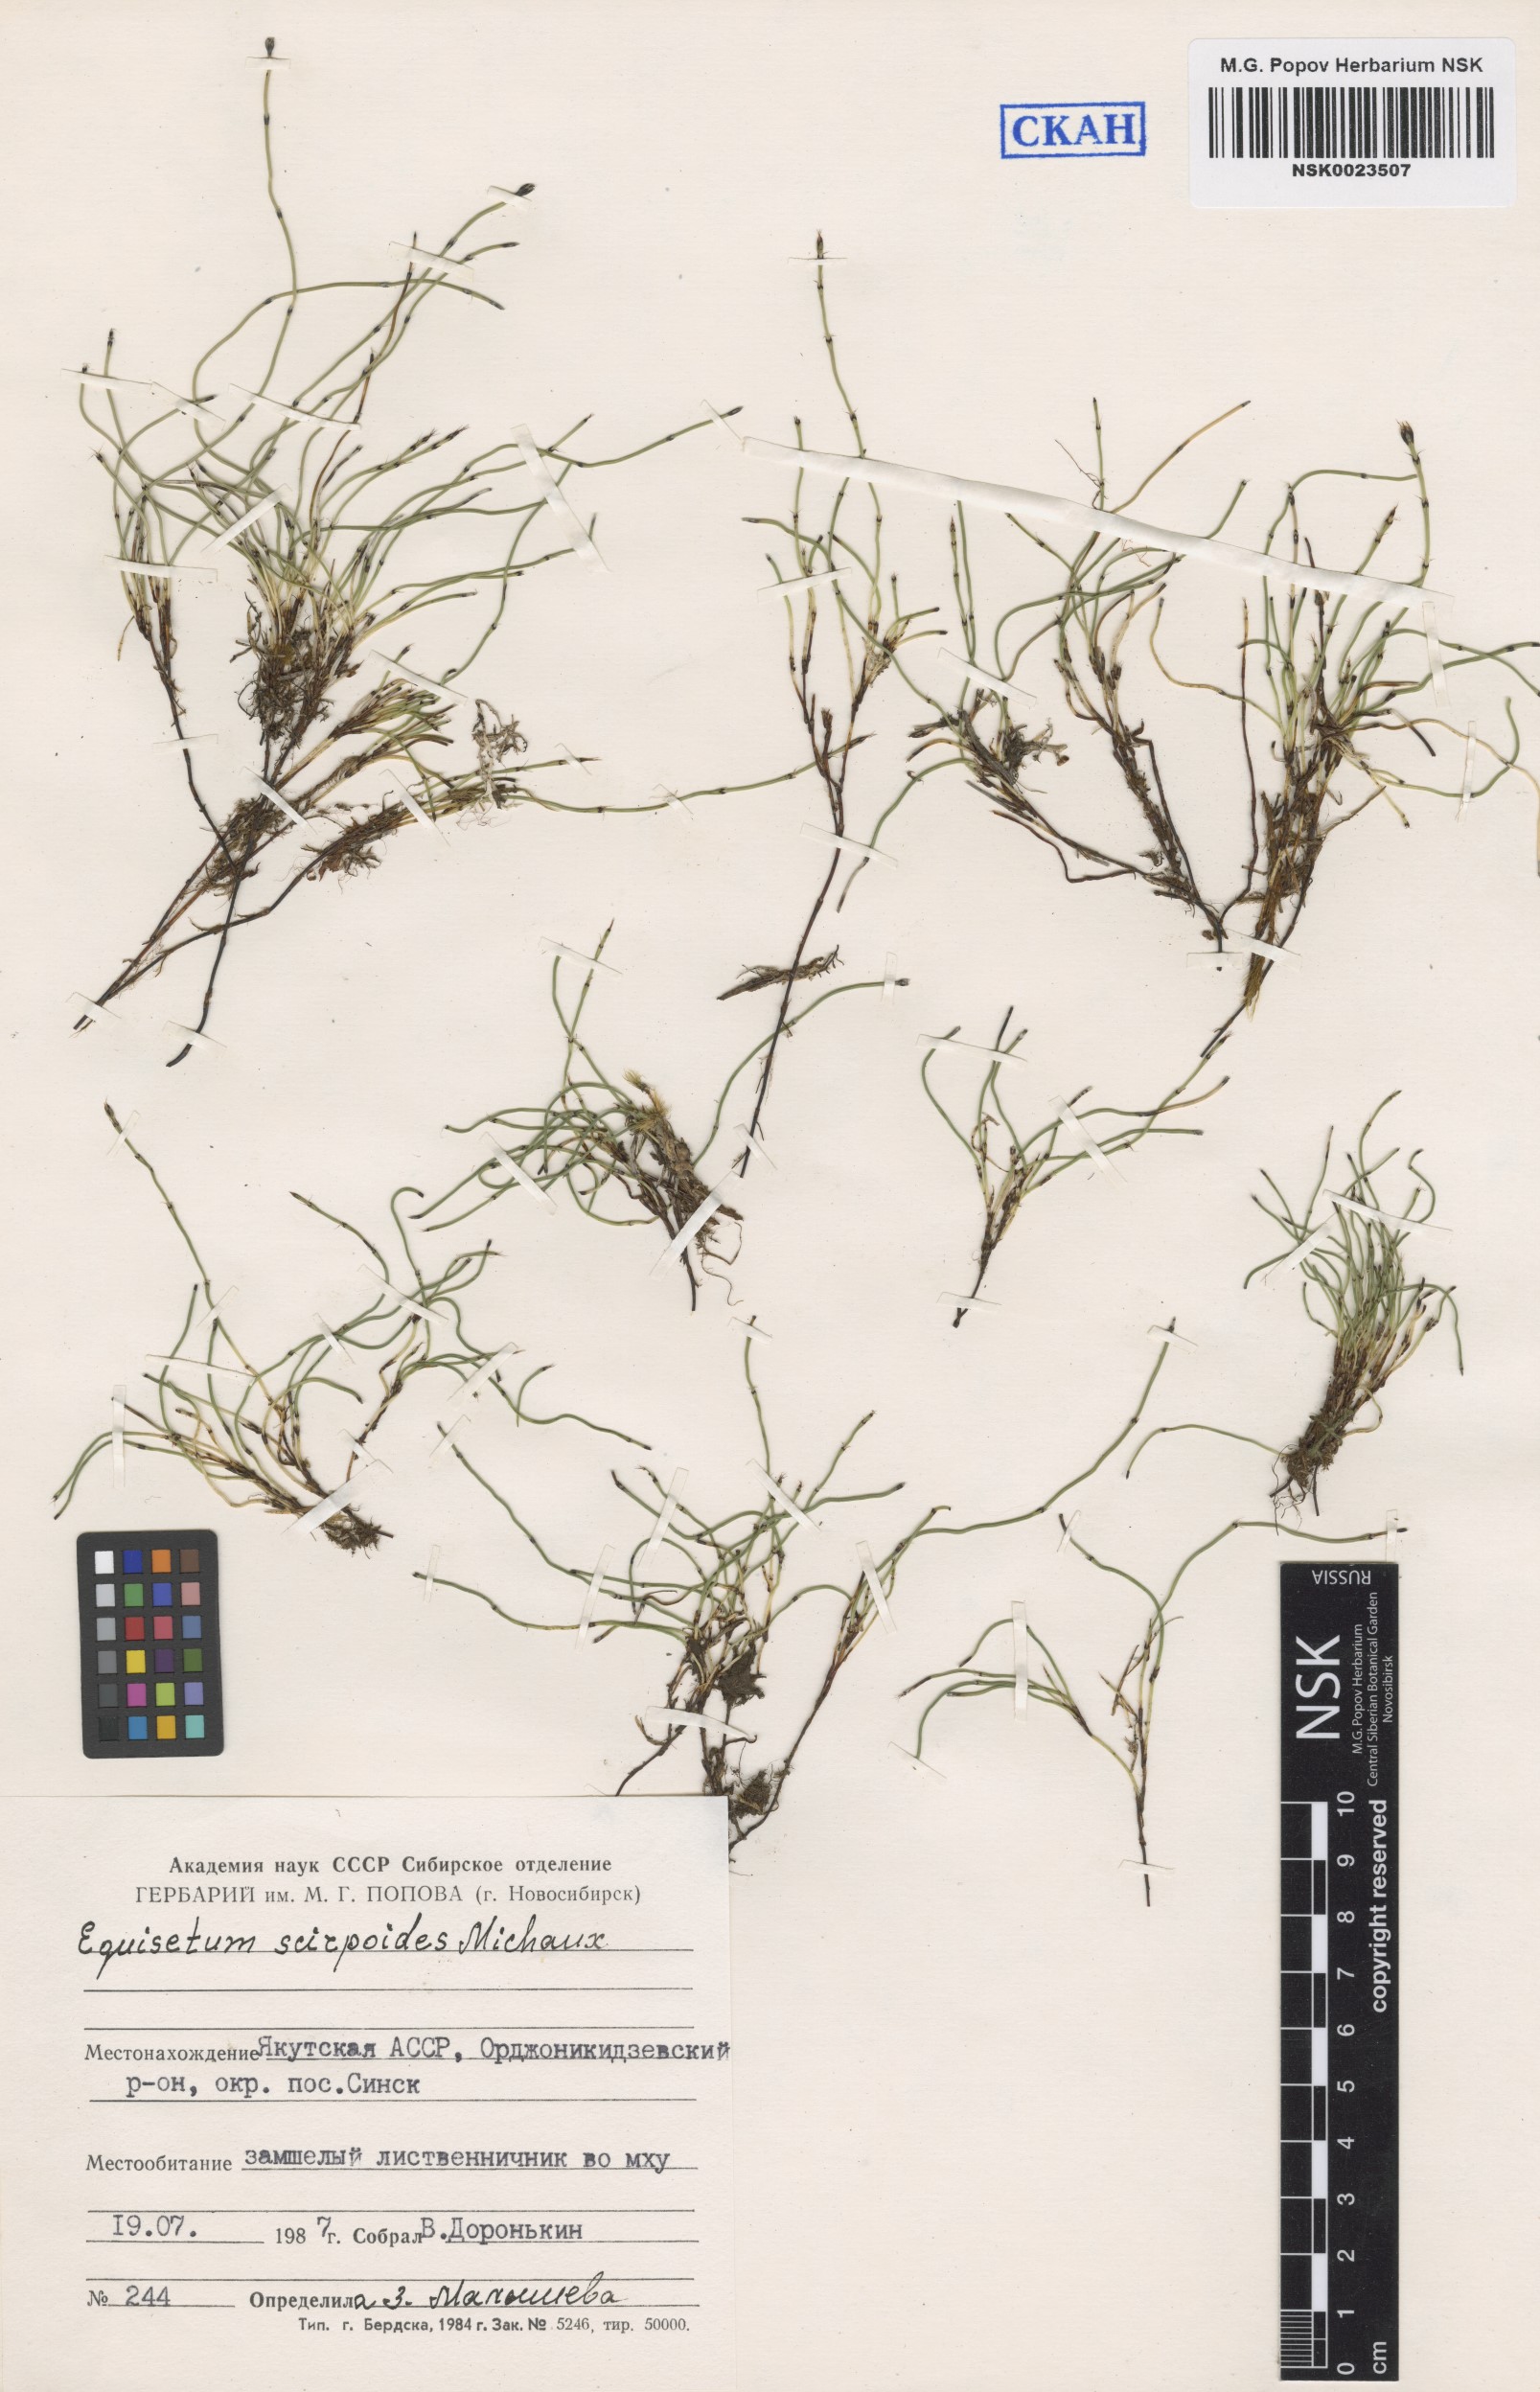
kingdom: Plantae
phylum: Tracheophyta
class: Polypodiopsida
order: Equisetales
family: Equisetaceae
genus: Equisetum
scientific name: Equisetum scirpoides
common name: Delicate horsetail
